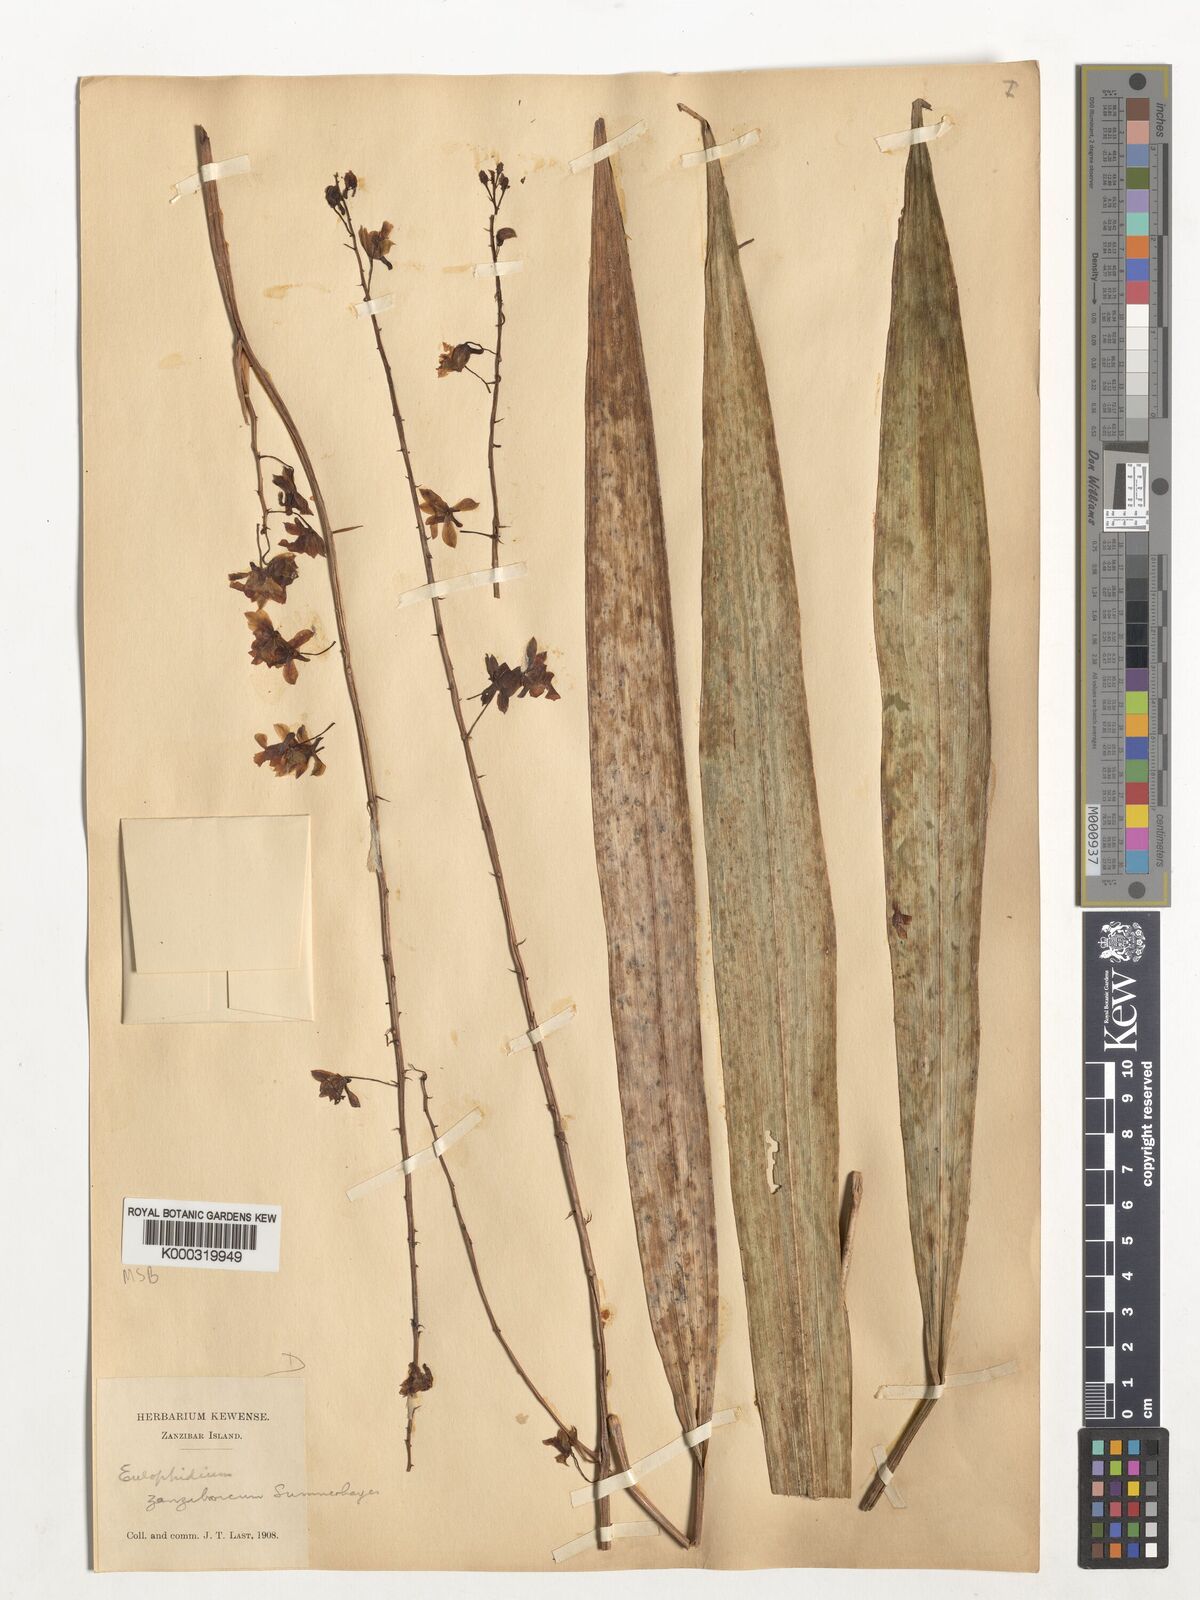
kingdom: Plantae
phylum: Tracheophyta
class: Liliopsida
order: Asparagales
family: Orchidaceae
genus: Eulophia
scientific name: Eulophia zanzibarica
